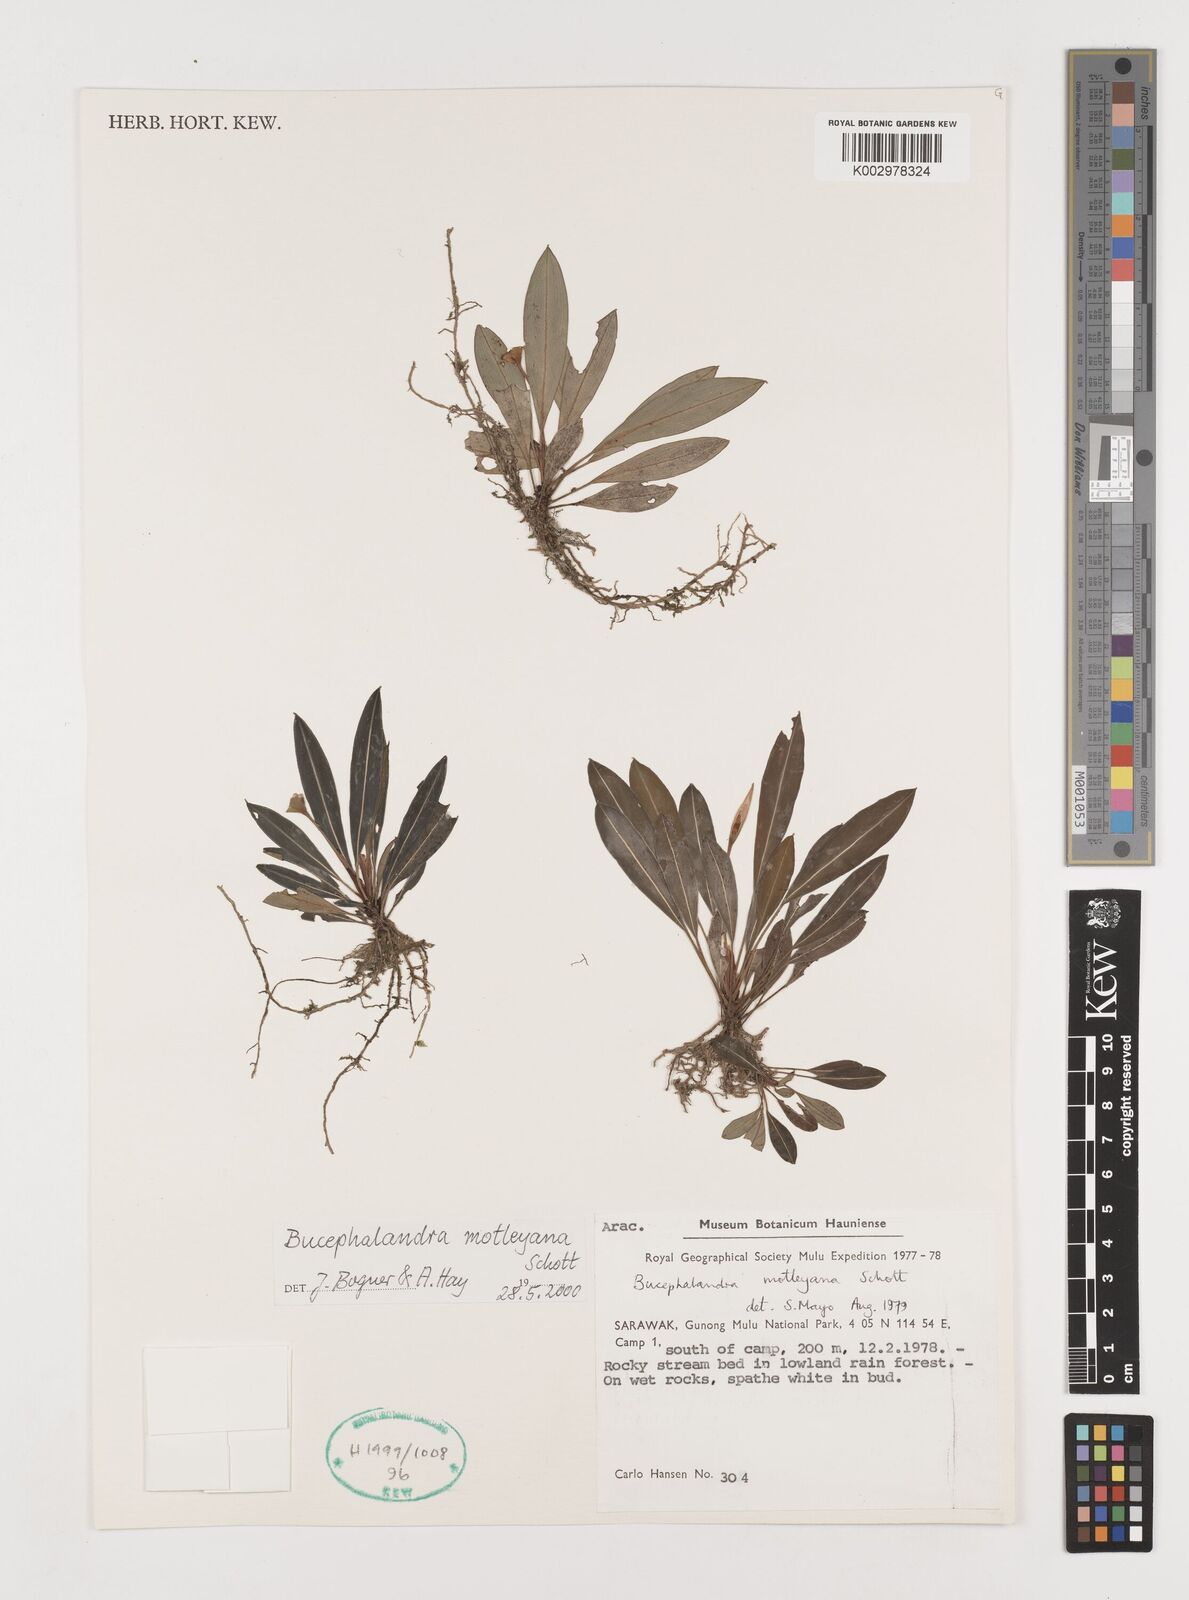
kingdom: Plantae
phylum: Tracheophyta
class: Liliopsida
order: Alismatales
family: Araceae
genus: Bucephalandra
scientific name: Bucephalandra motleyana
